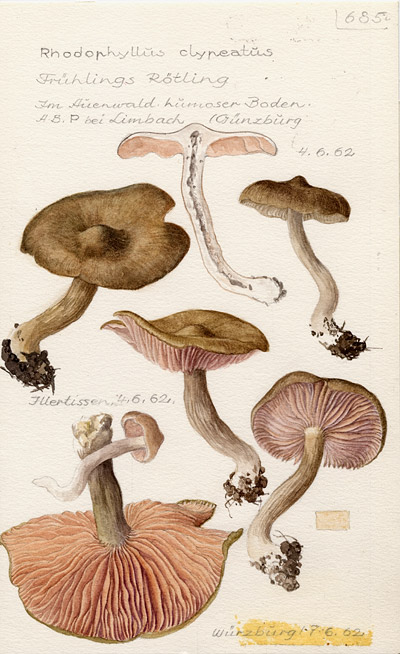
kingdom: Fungi
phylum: Basidiomycota
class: Agaricomycetes
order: Agaricales
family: Entolomataceae
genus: Entoloma
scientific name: Entoloma clypeatum
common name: Shield pinkgill
